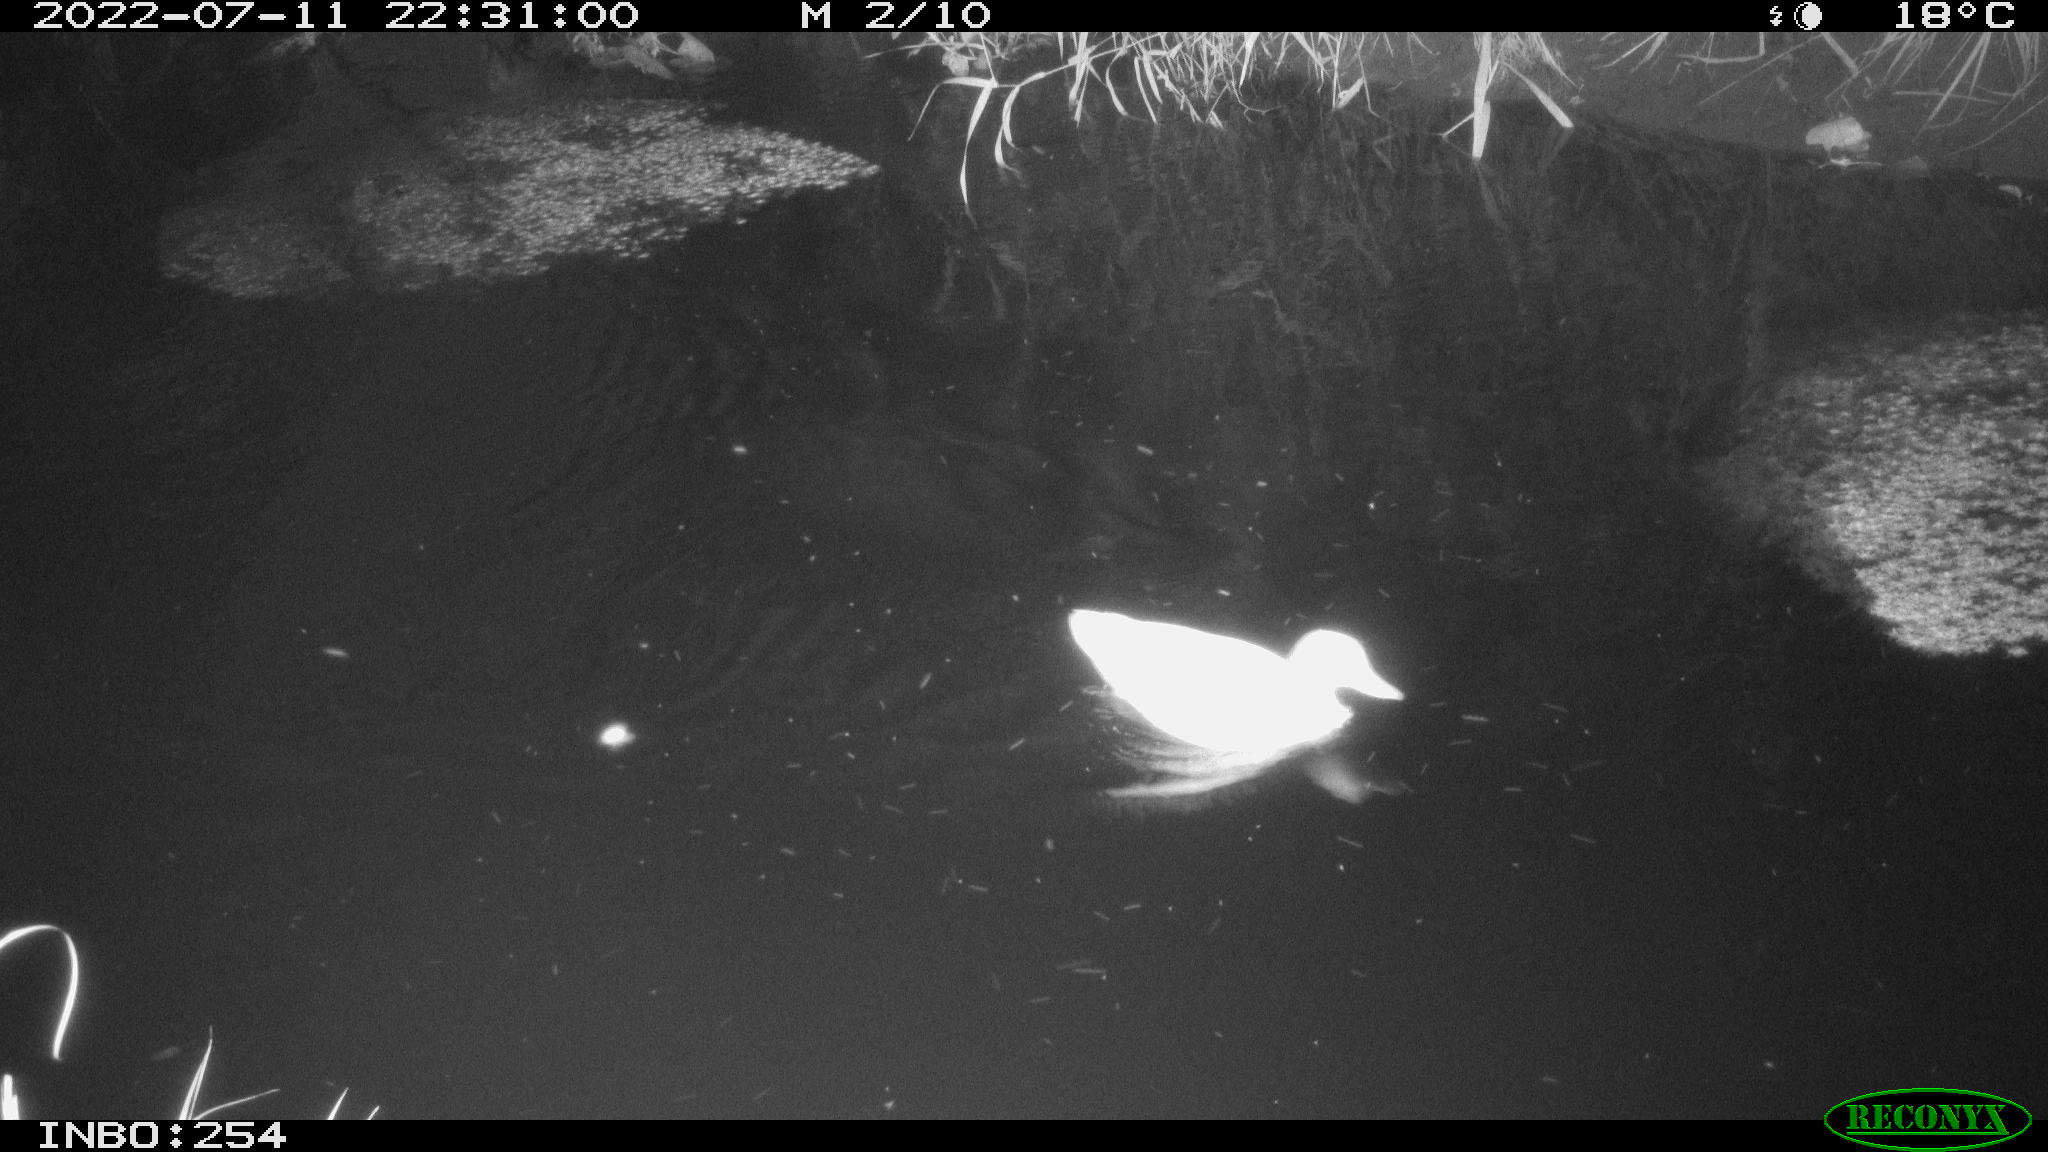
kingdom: Animalia
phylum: Chordata
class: Aves
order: Anseriformes
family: Anatidae
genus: Anas
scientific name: Anas platyrhynchos
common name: Mallard
